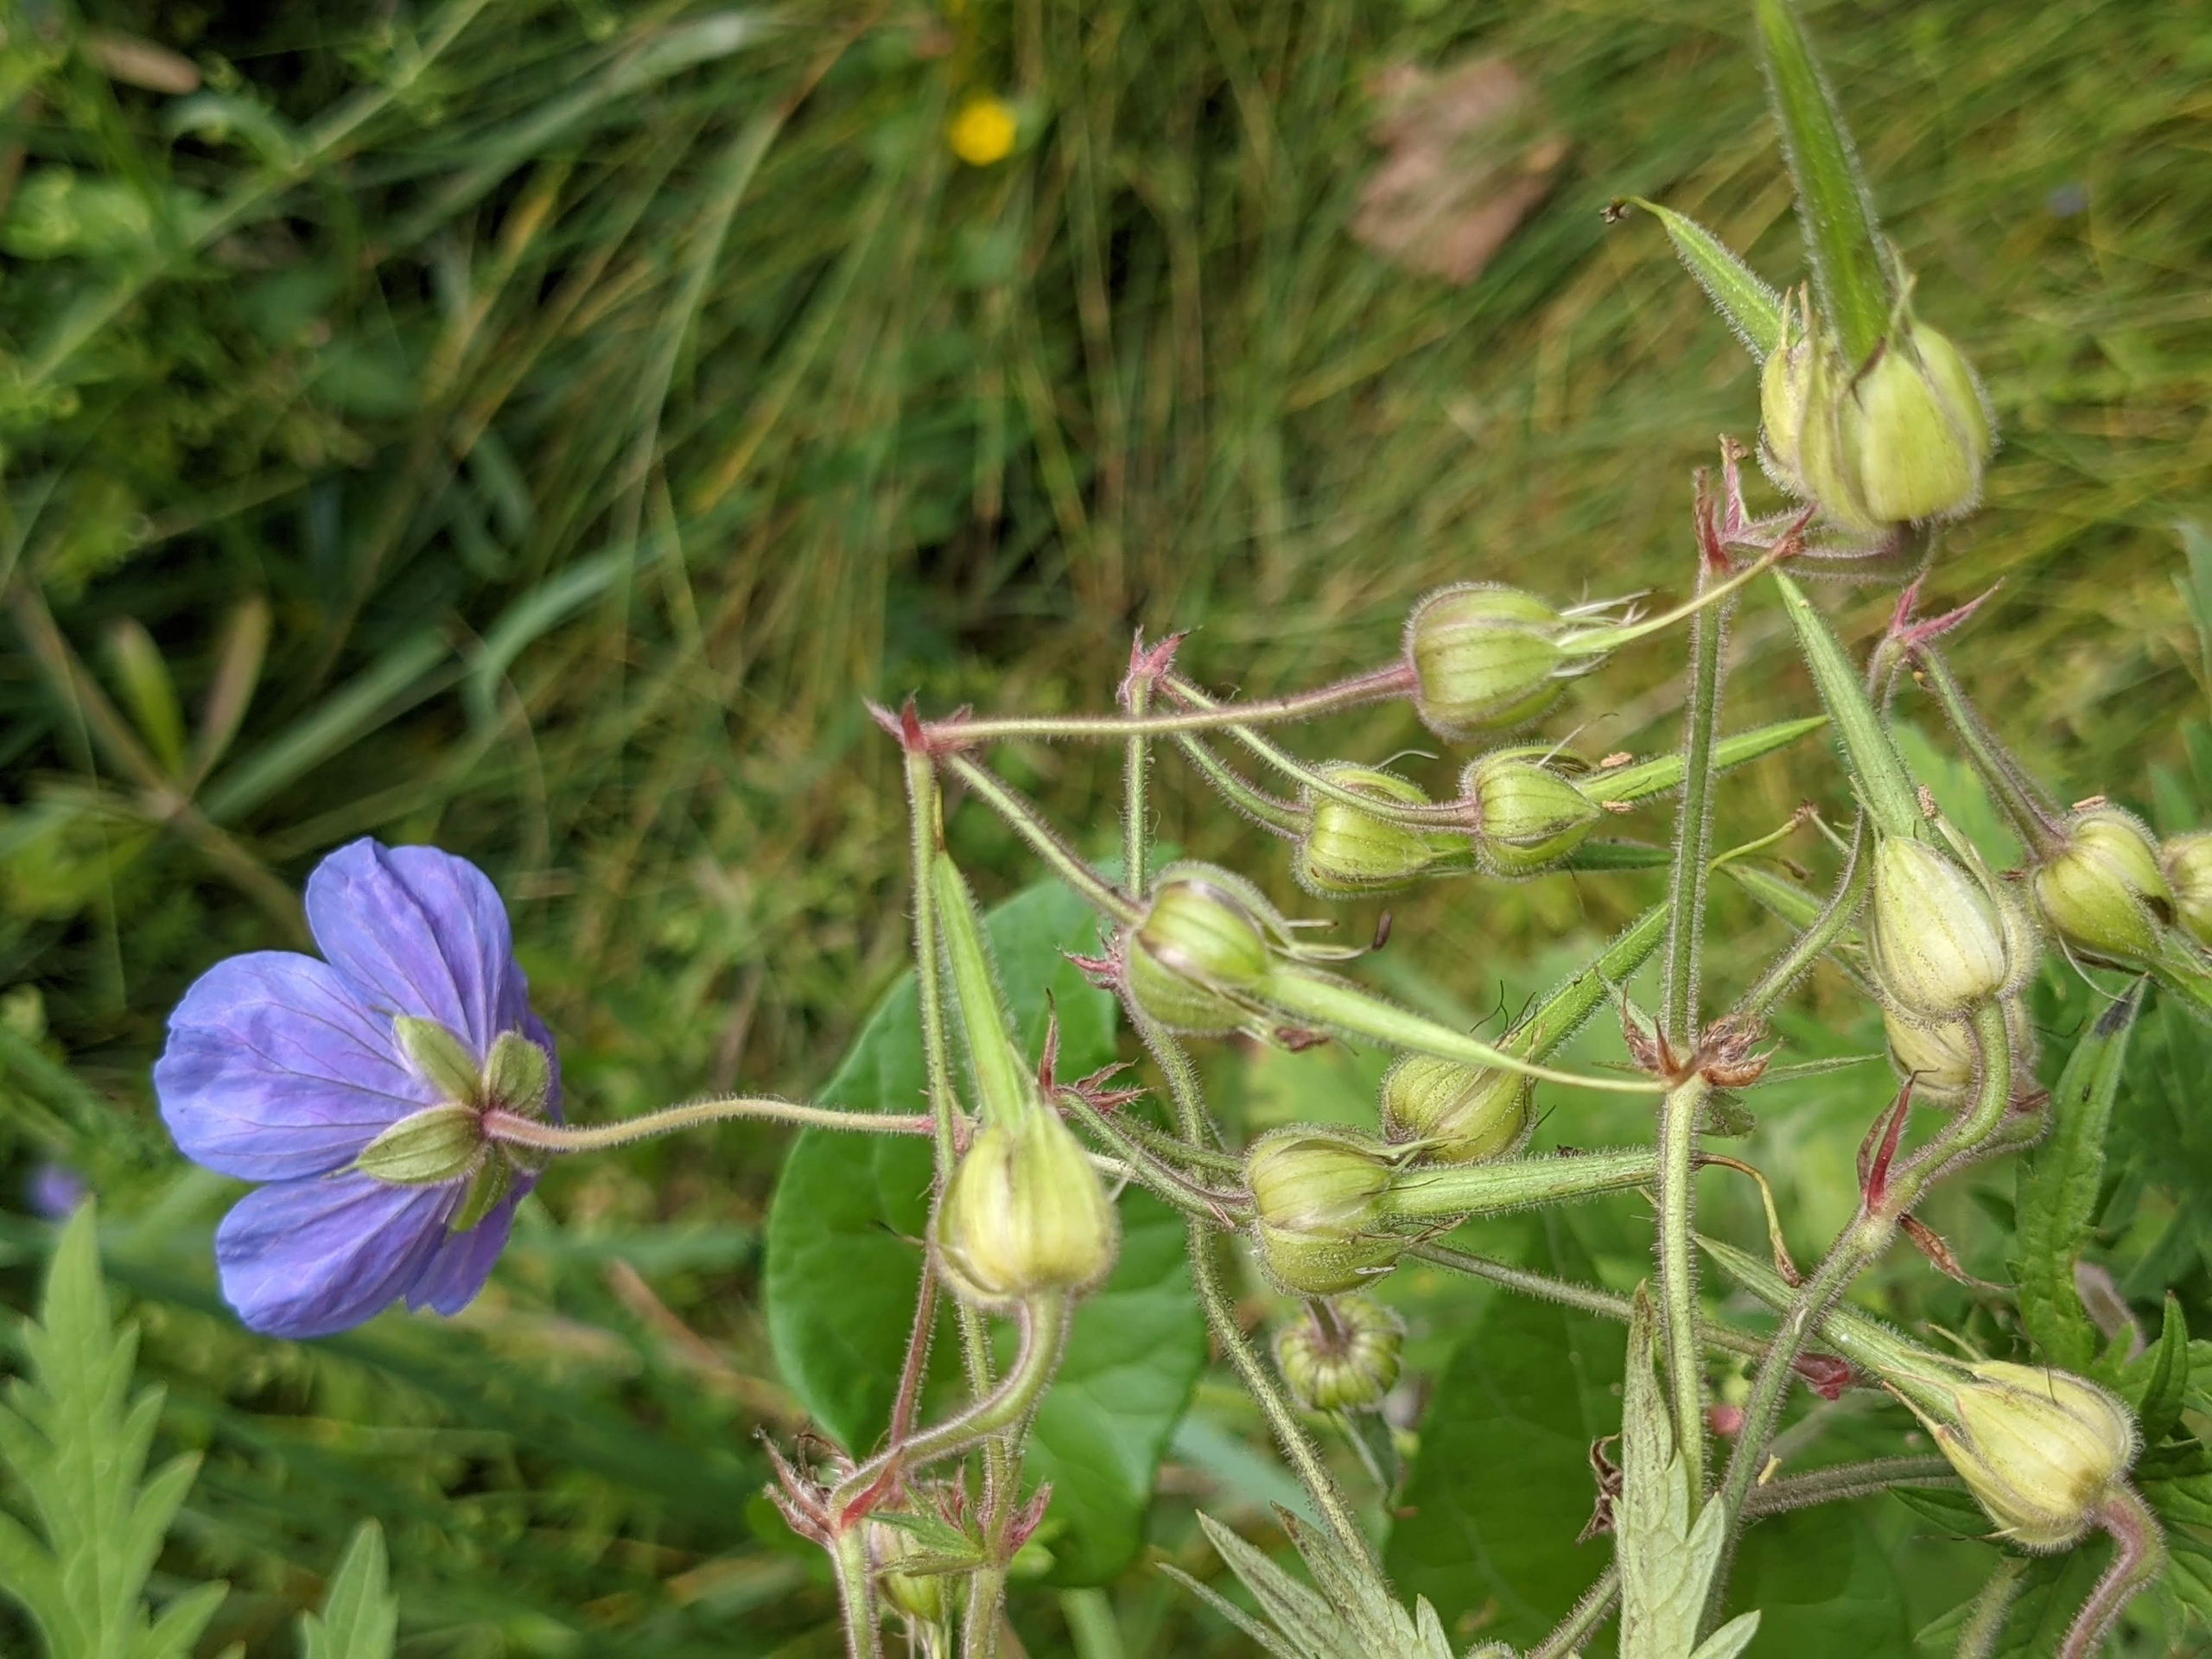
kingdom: Plantae
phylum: Tracheophyta
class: Magnoliopsida
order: Geraniales
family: Geraniaceae
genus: Geranium
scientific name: Geranium pratense
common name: Eng-storkenæb
